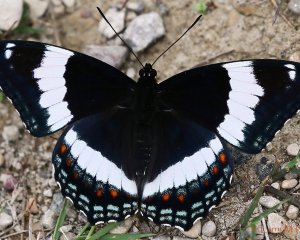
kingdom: Animalia
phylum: Arthropoda
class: Insecta
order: Lepidoptera
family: Nymphalidae
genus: Limenitis
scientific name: Limenitis arthemis
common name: Red-spotted Admiral
